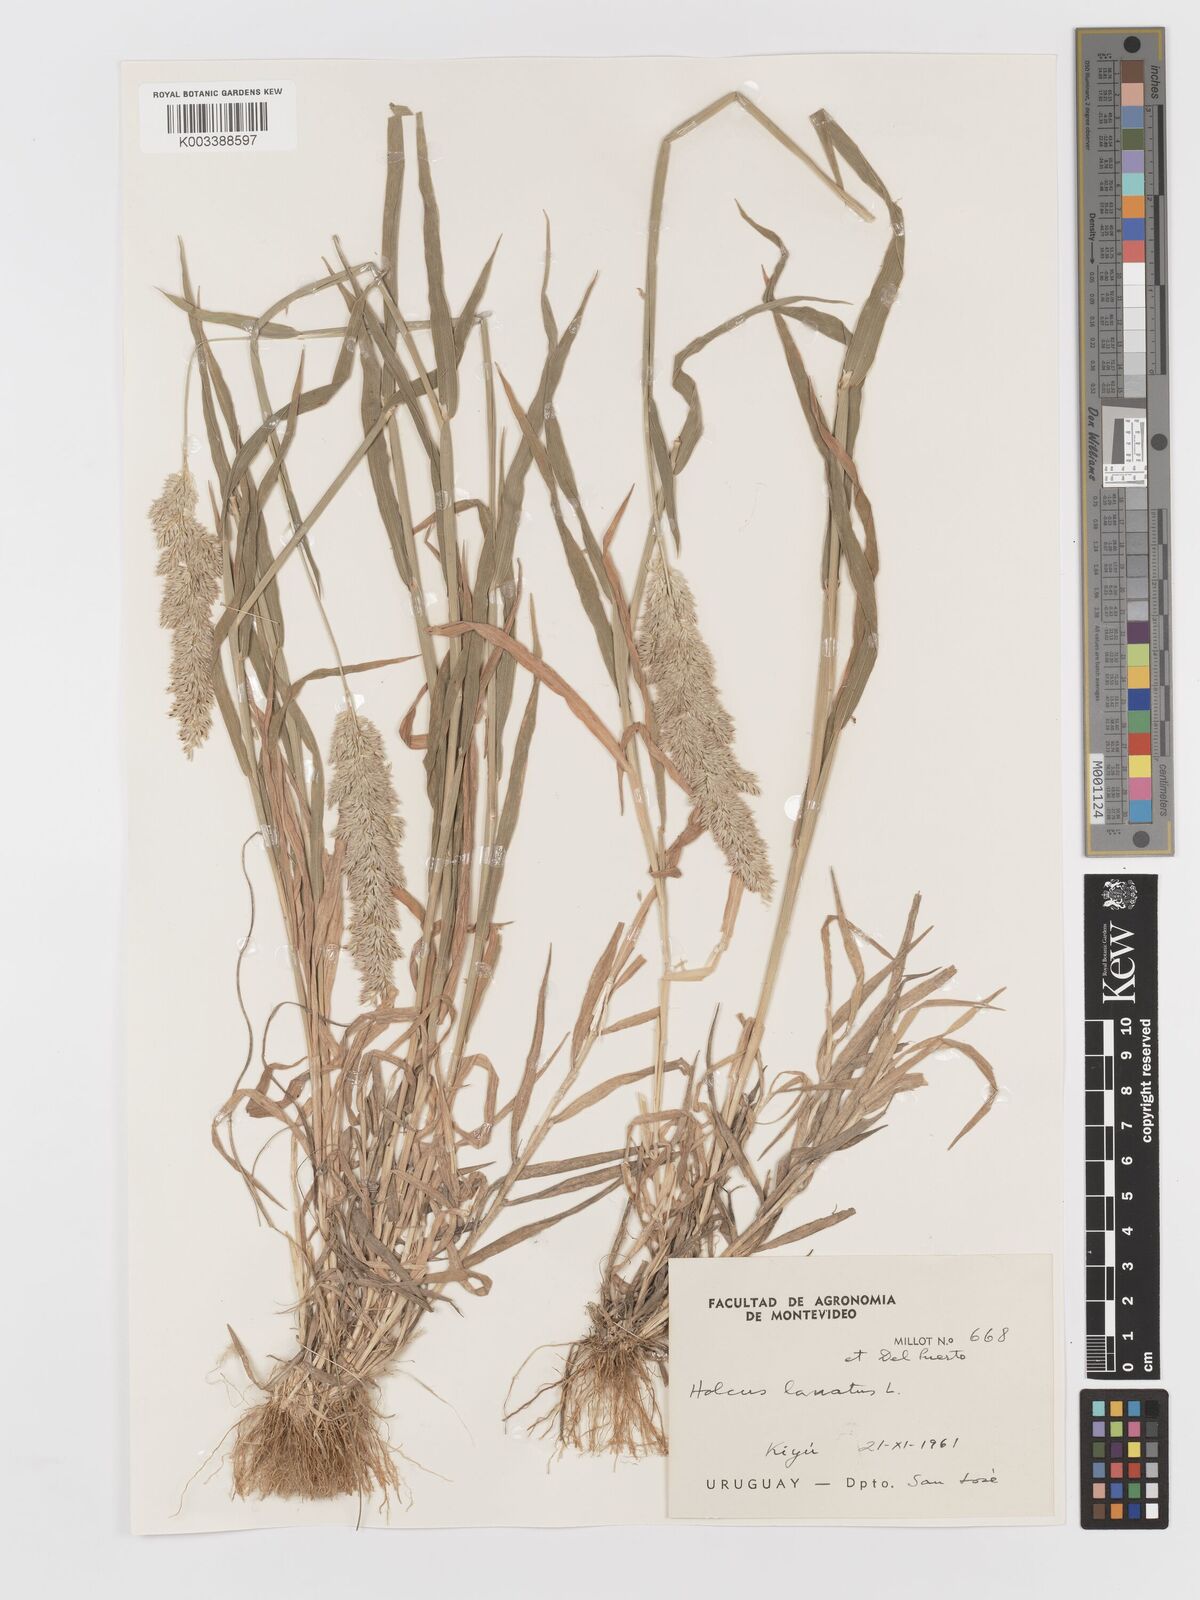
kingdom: Plantae
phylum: Tracheophyta
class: Liliopsida
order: Poales
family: Poaceae
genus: Holcus
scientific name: Holcus lanatus
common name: Yorkshire-fog
